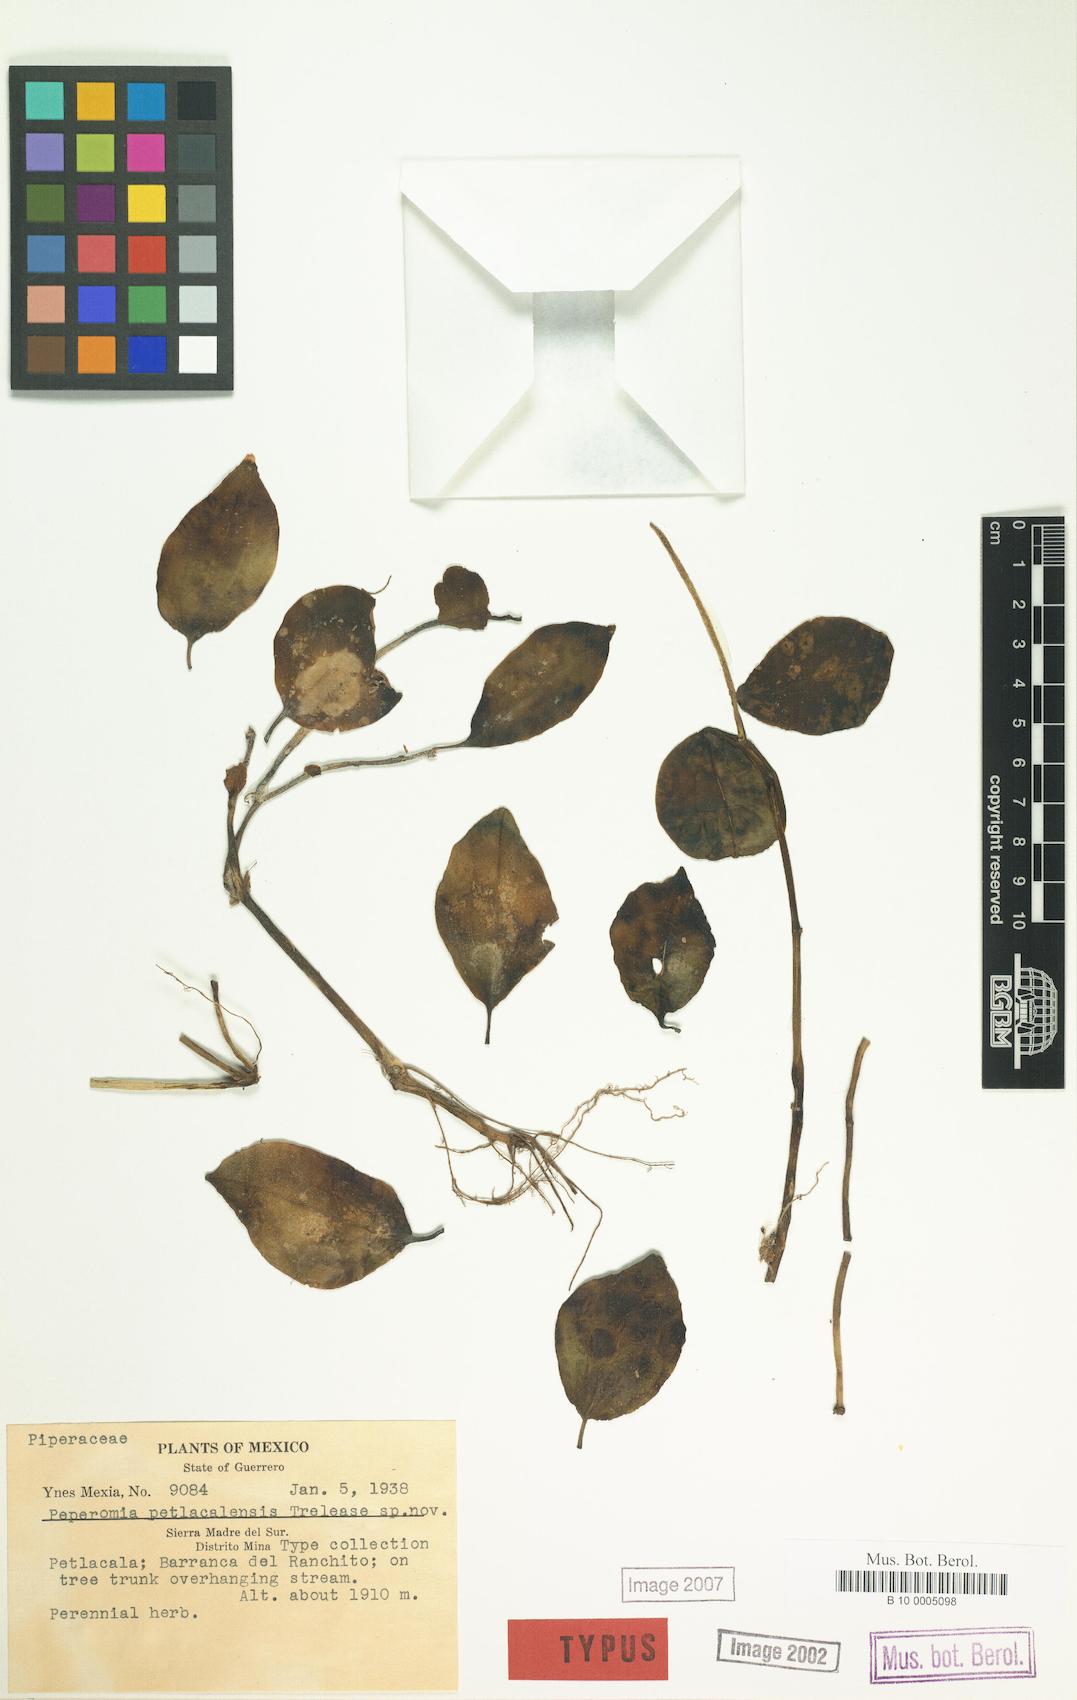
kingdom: Plantae
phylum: Tracheophyta
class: Magnoliopsida
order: Piperales
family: Piperaceae
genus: Peperomia
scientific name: Peperomia
